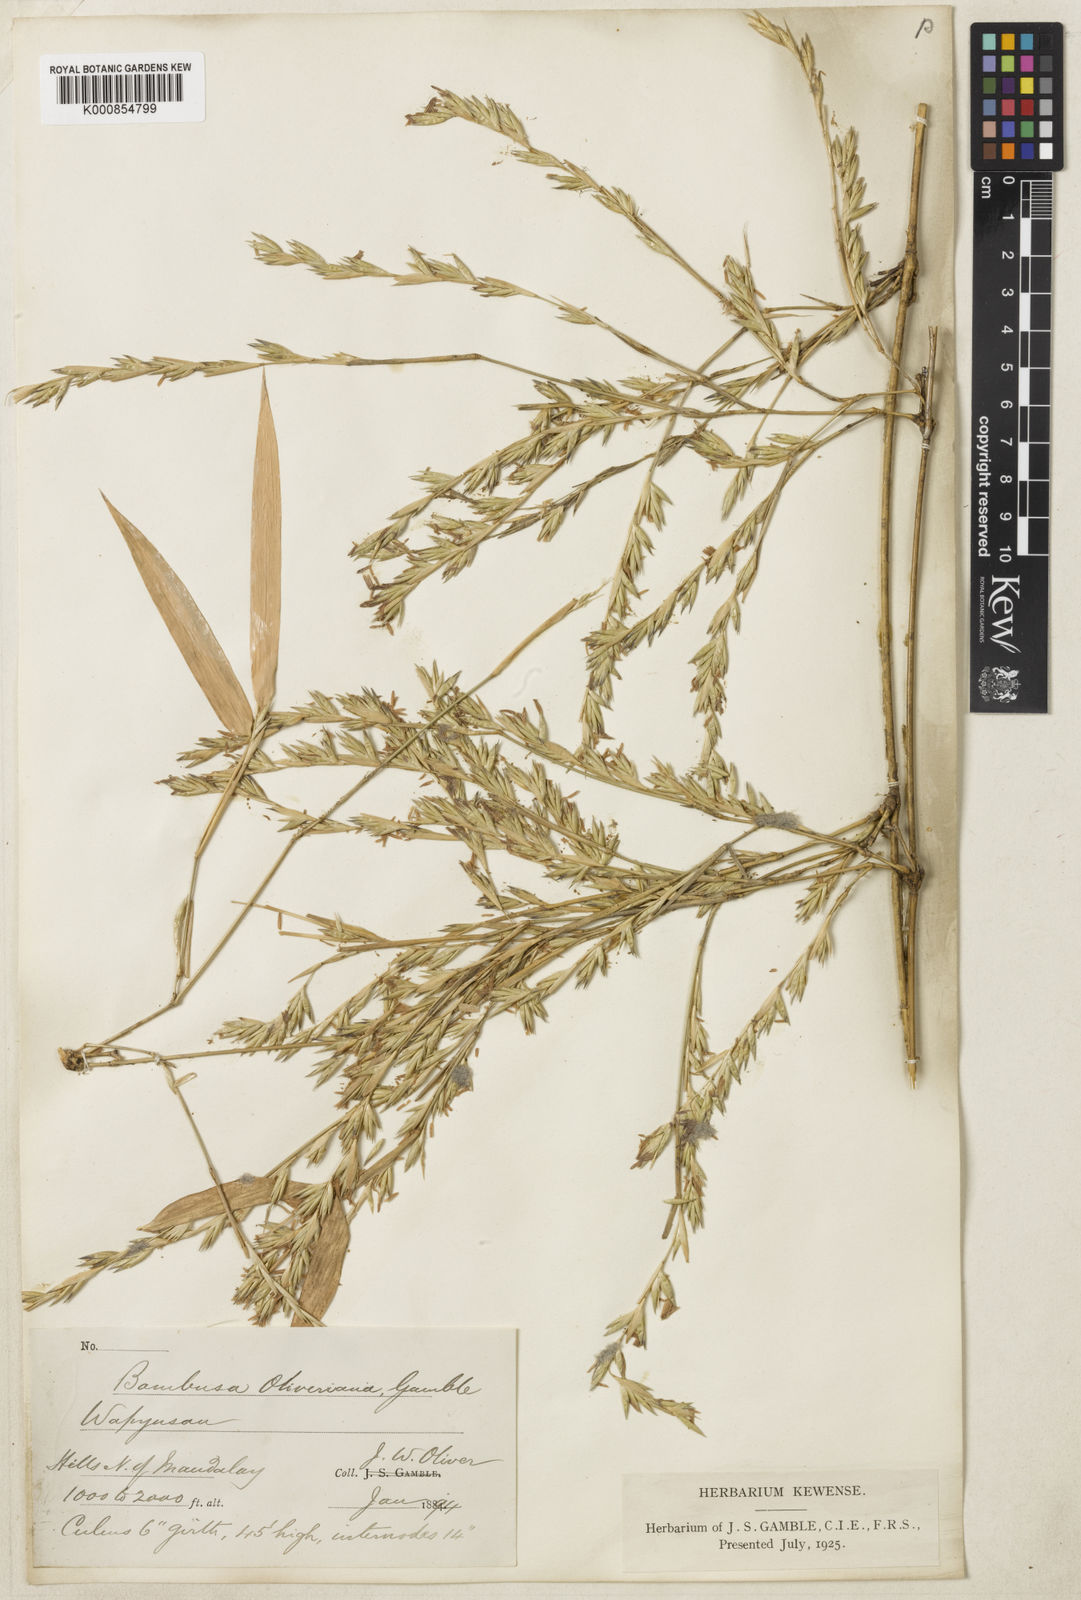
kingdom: Plantae
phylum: Tracheophyta
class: Liliopsida
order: Poales
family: Poaceae
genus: Bambusa
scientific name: Bambusa oliveriana
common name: Bush bamboo
